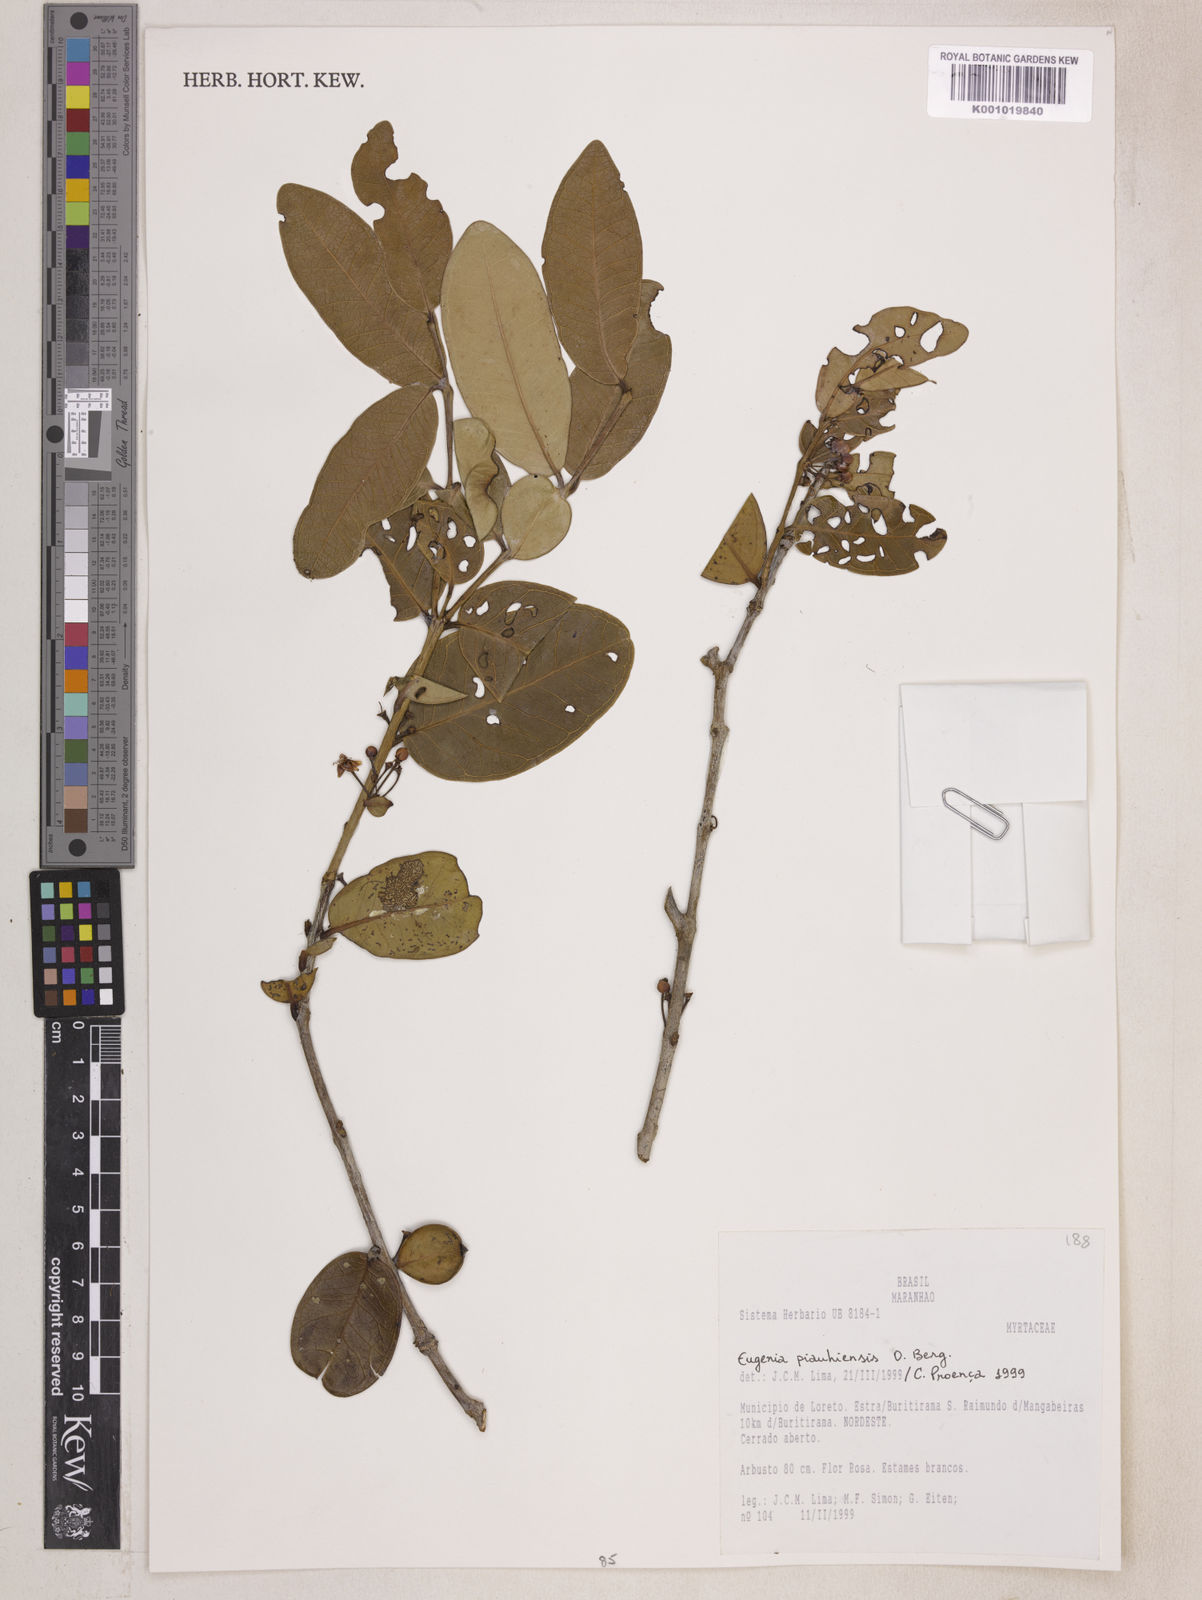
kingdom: Plantae
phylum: Tracheophyta
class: Magnoliopsida
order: Myrtales
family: Myrtaceae
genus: Eugenia
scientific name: Eugenia stictopetala
